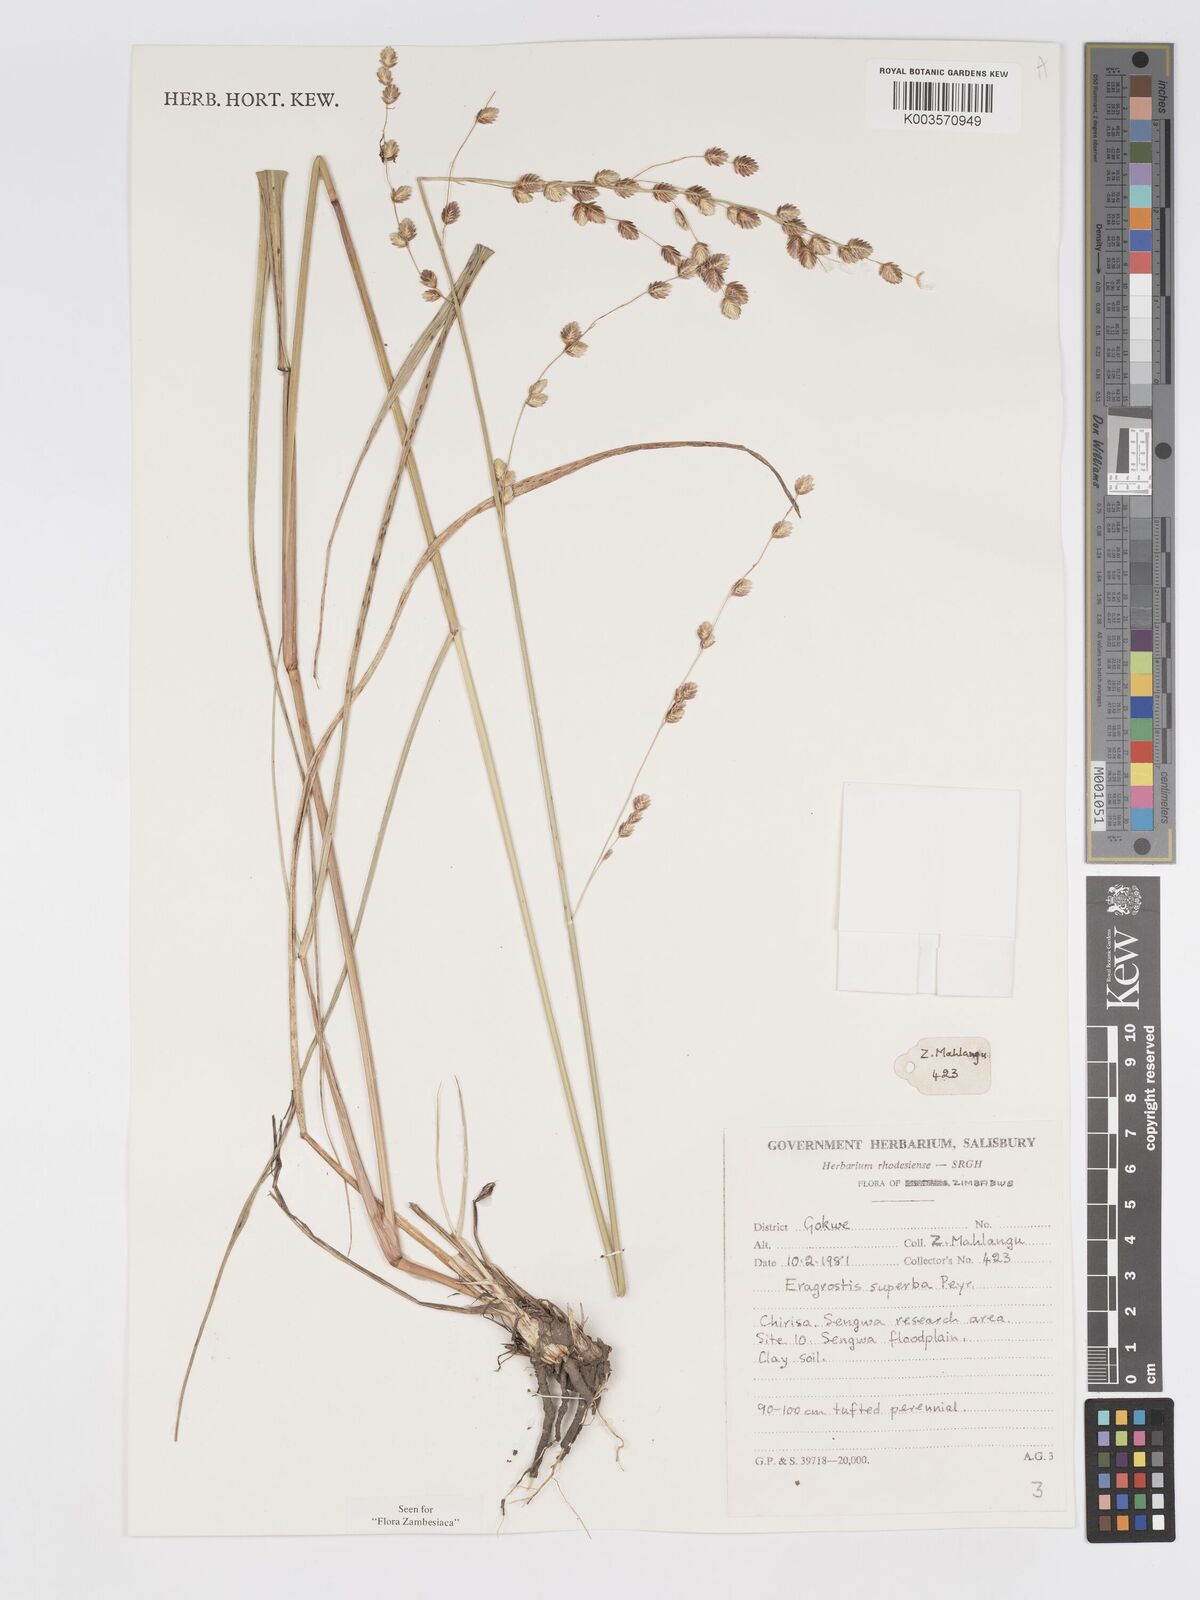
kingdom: Plantae
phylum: Tracheophyta
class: Liliopsida
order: Poales
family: Poaceae
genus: Eragrostis
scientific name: Eragrostis superba
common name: Wilman lovegrass
